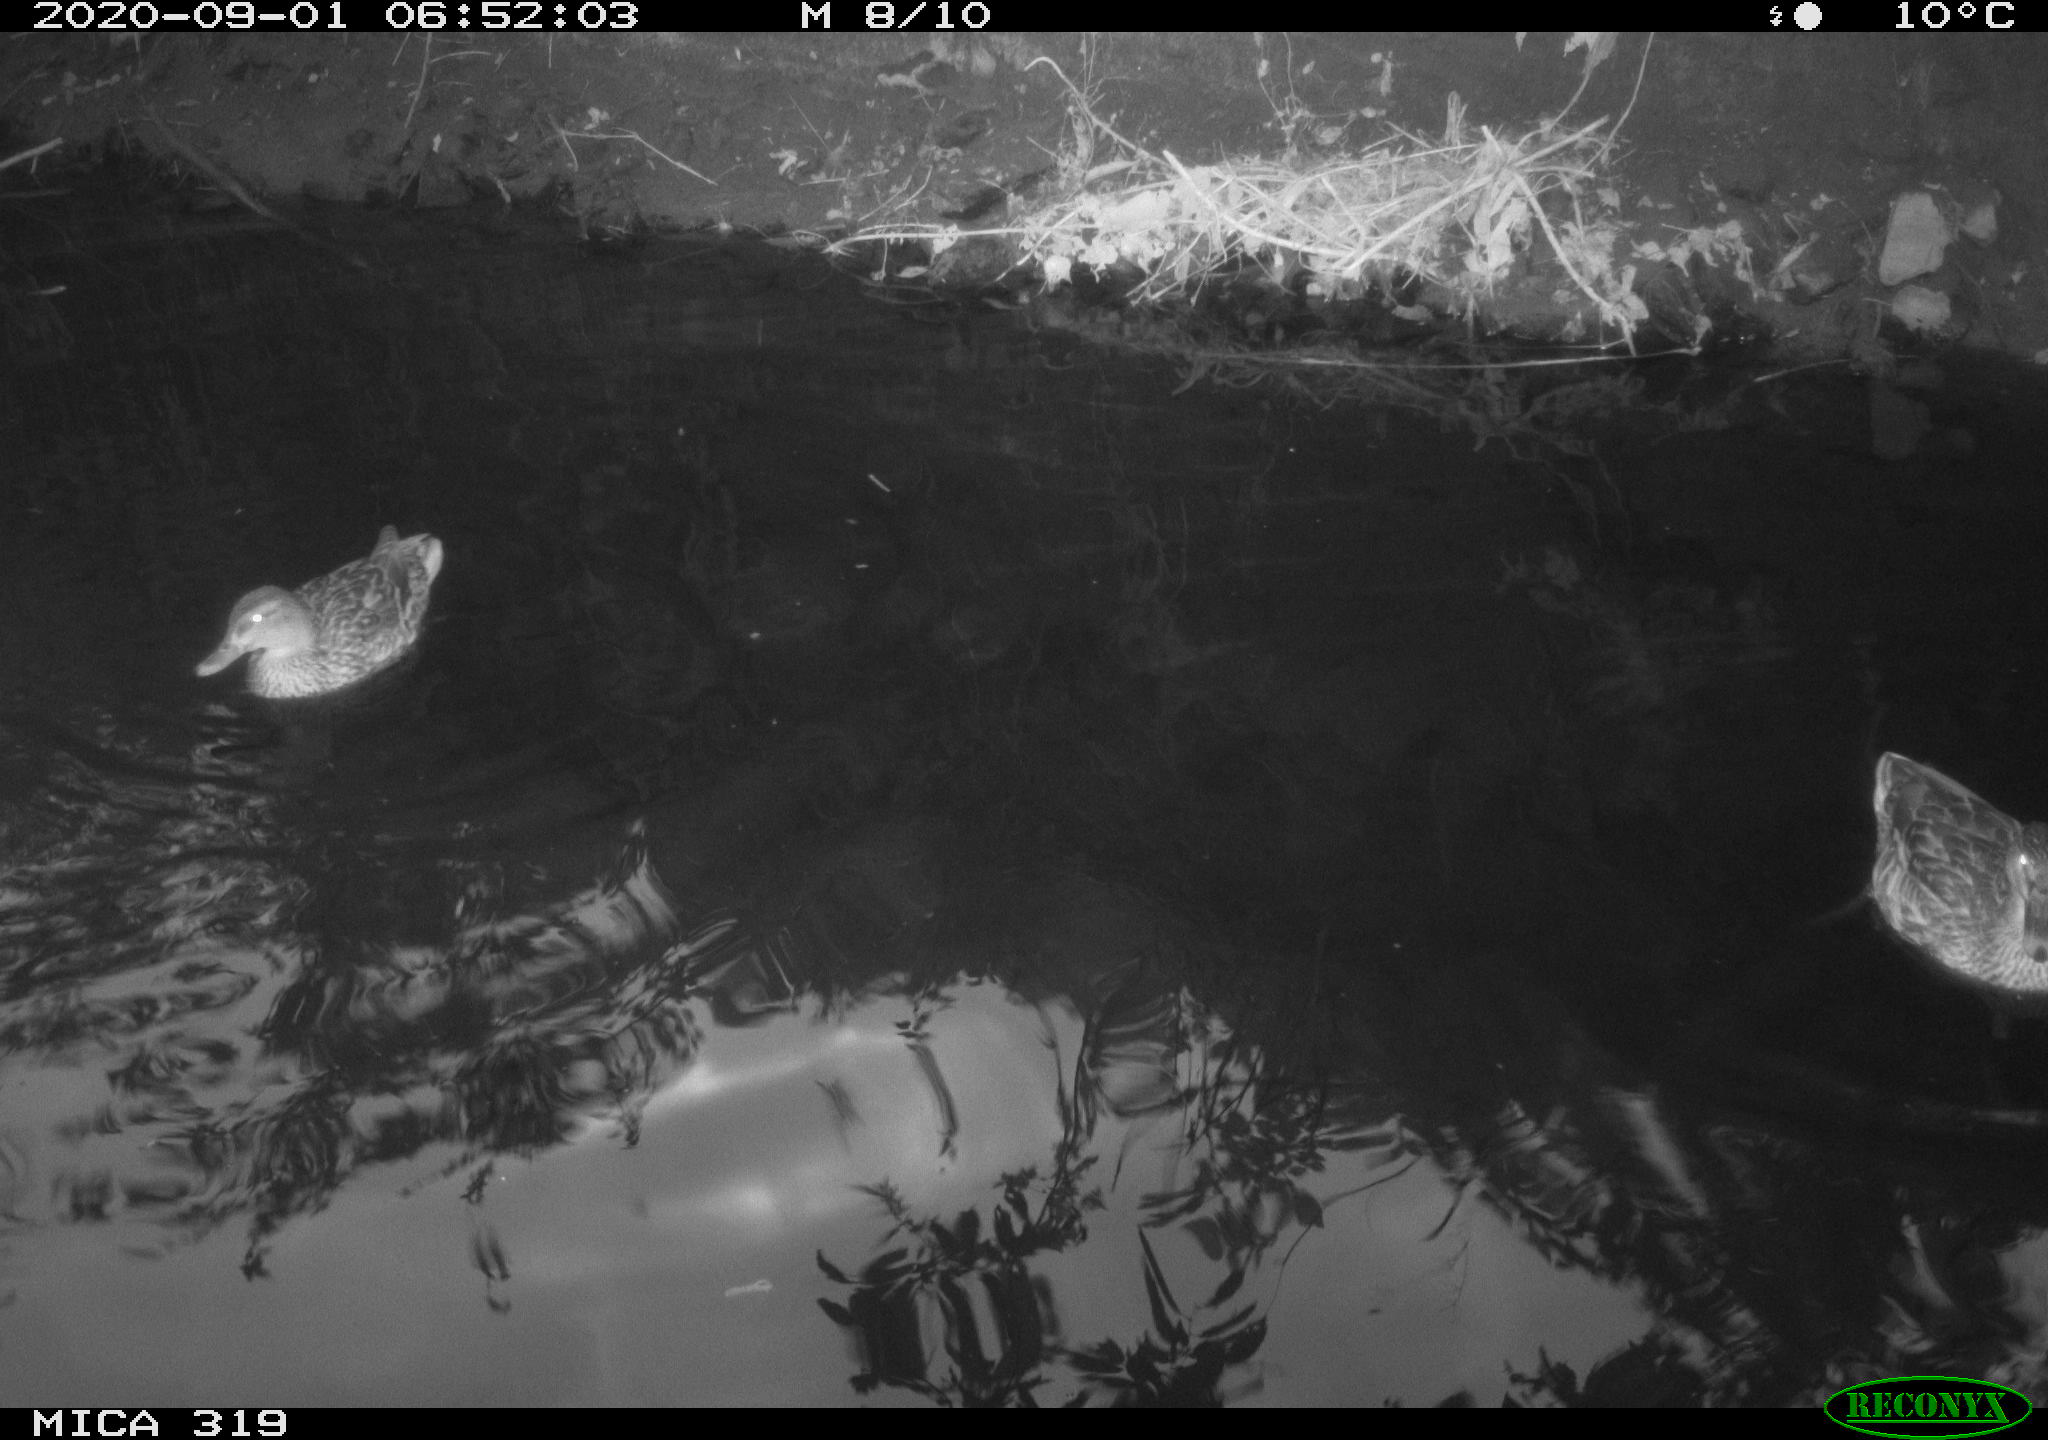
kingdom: Animalia
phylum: Chordata
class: Aves
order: Anseriformes
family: Anatidae
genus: Anas
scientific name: Anas platyrhynchos
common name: Mallard
